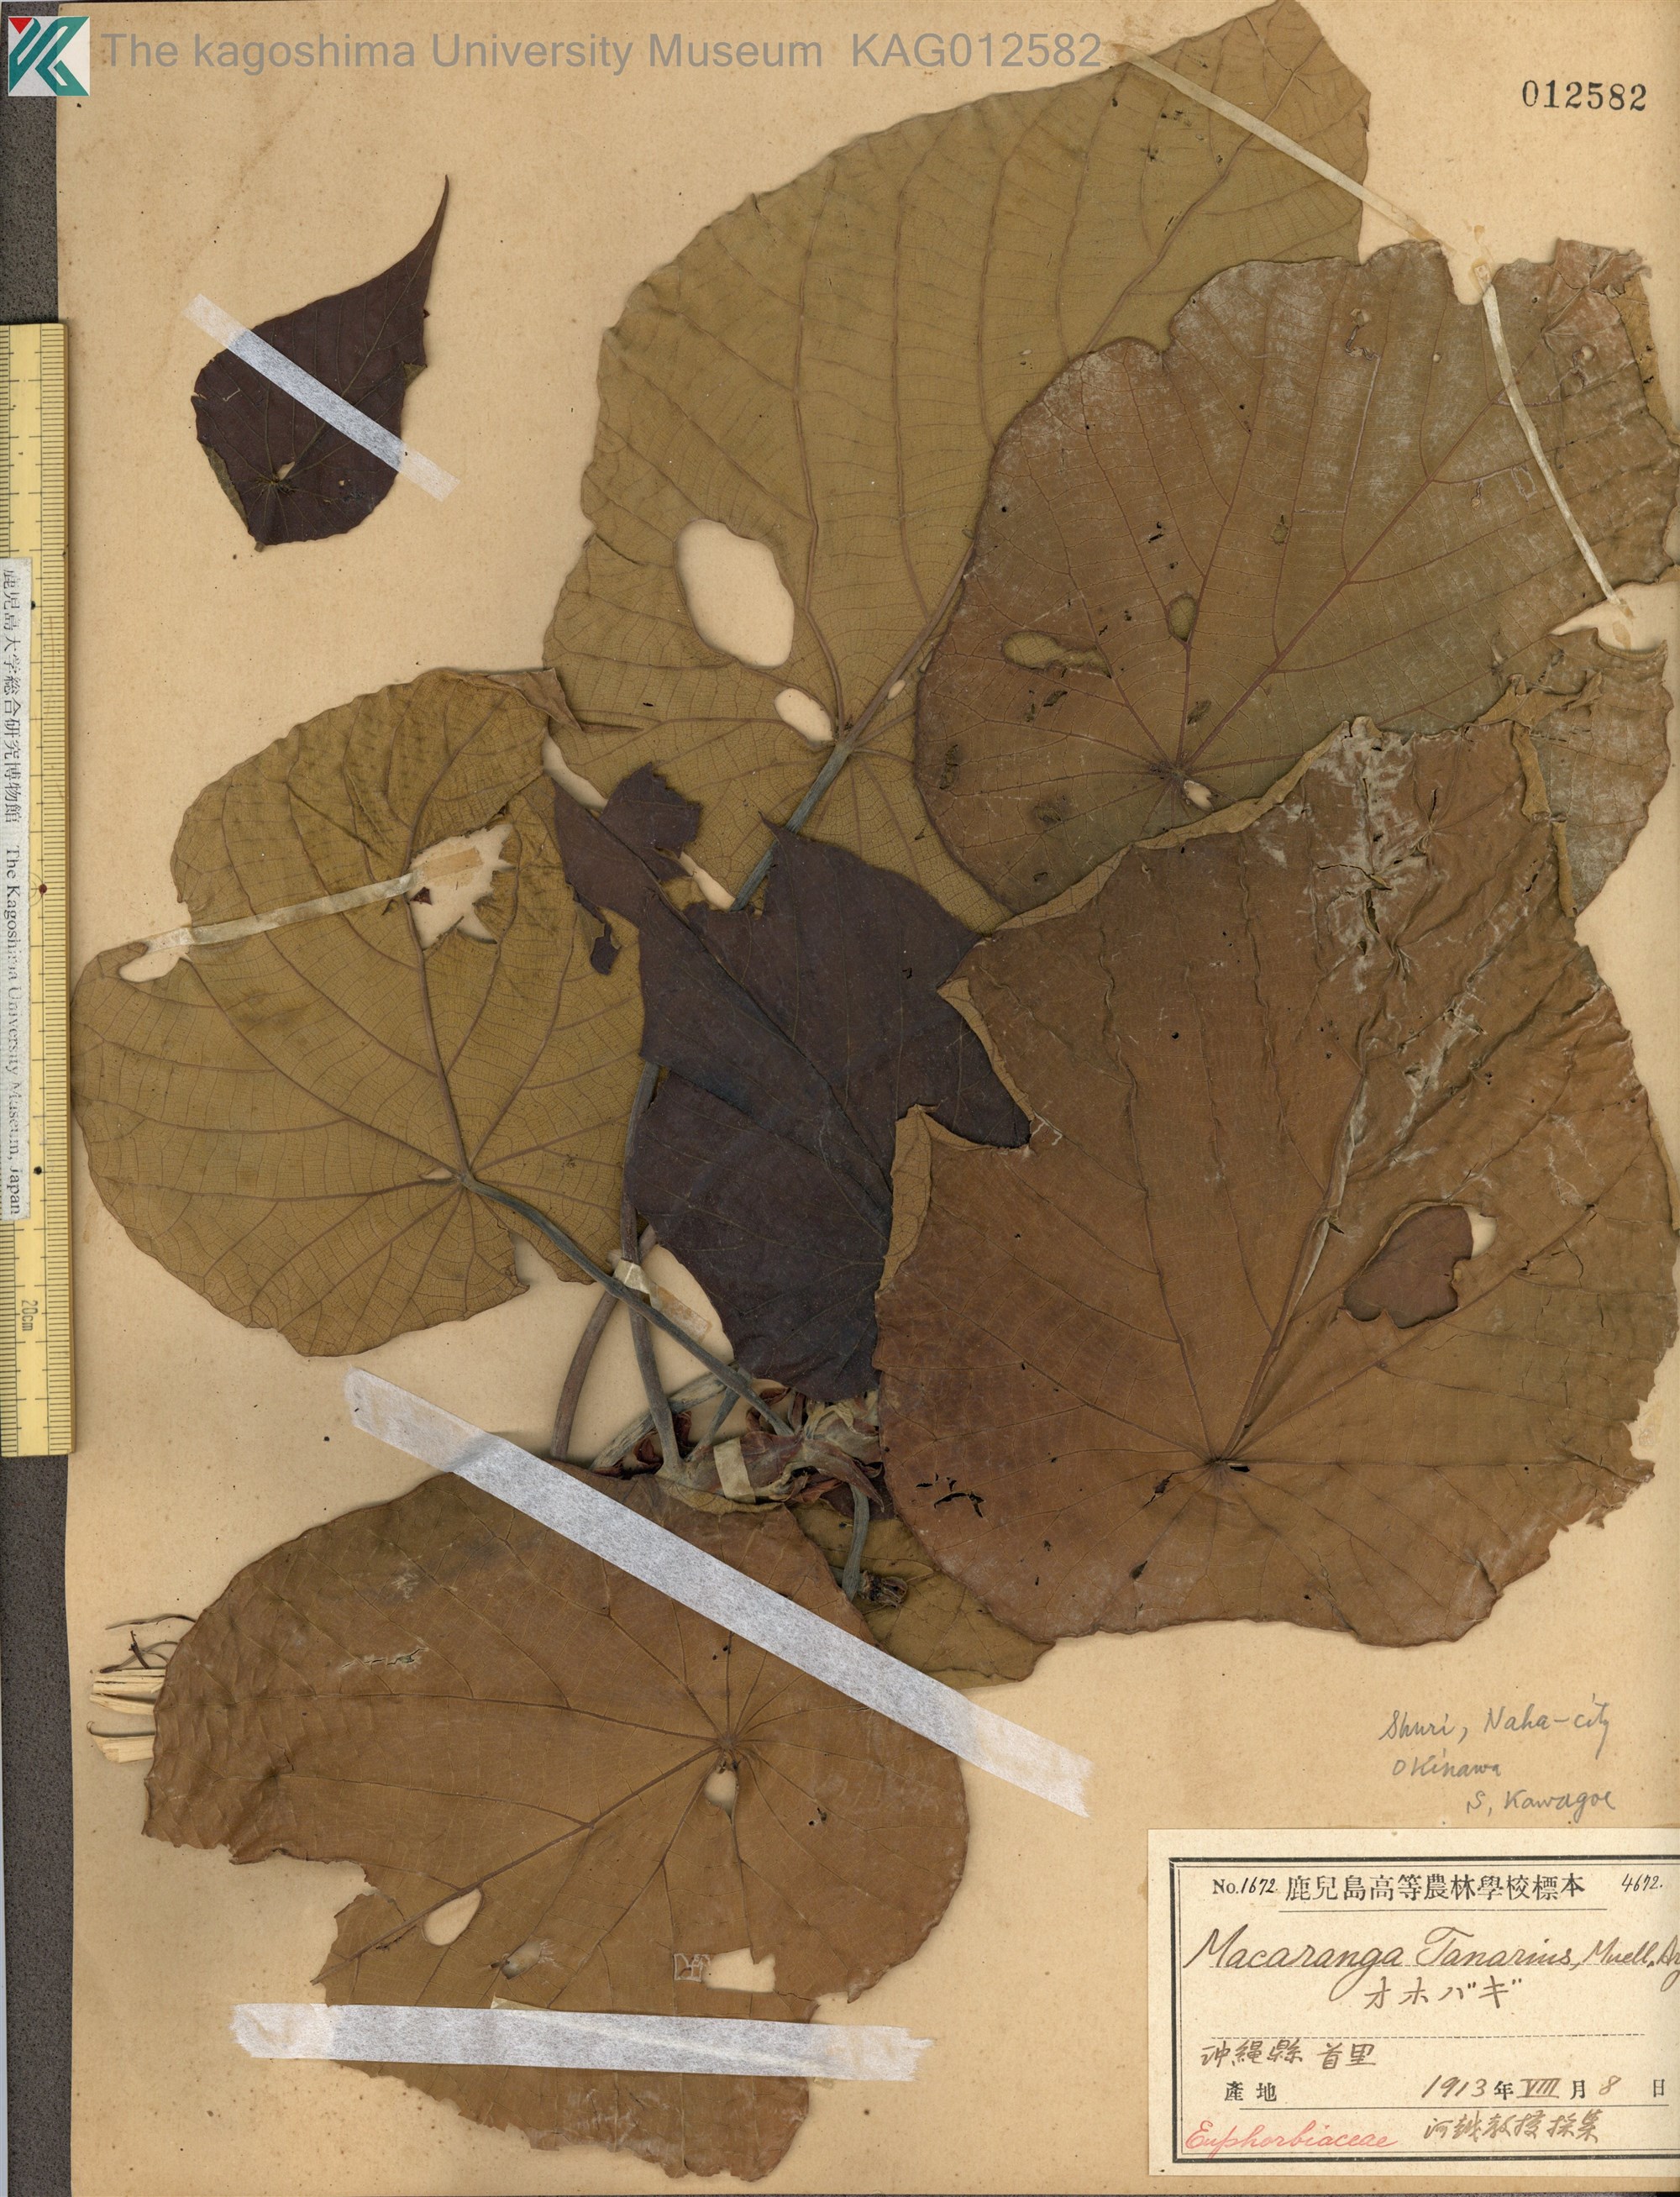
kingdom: Plantae
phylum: Tracheophyta
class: Magnoliopsida
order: Malpighiales
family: Euphorbiaceae
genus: Macaranga
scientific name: Macaranga tanarius
